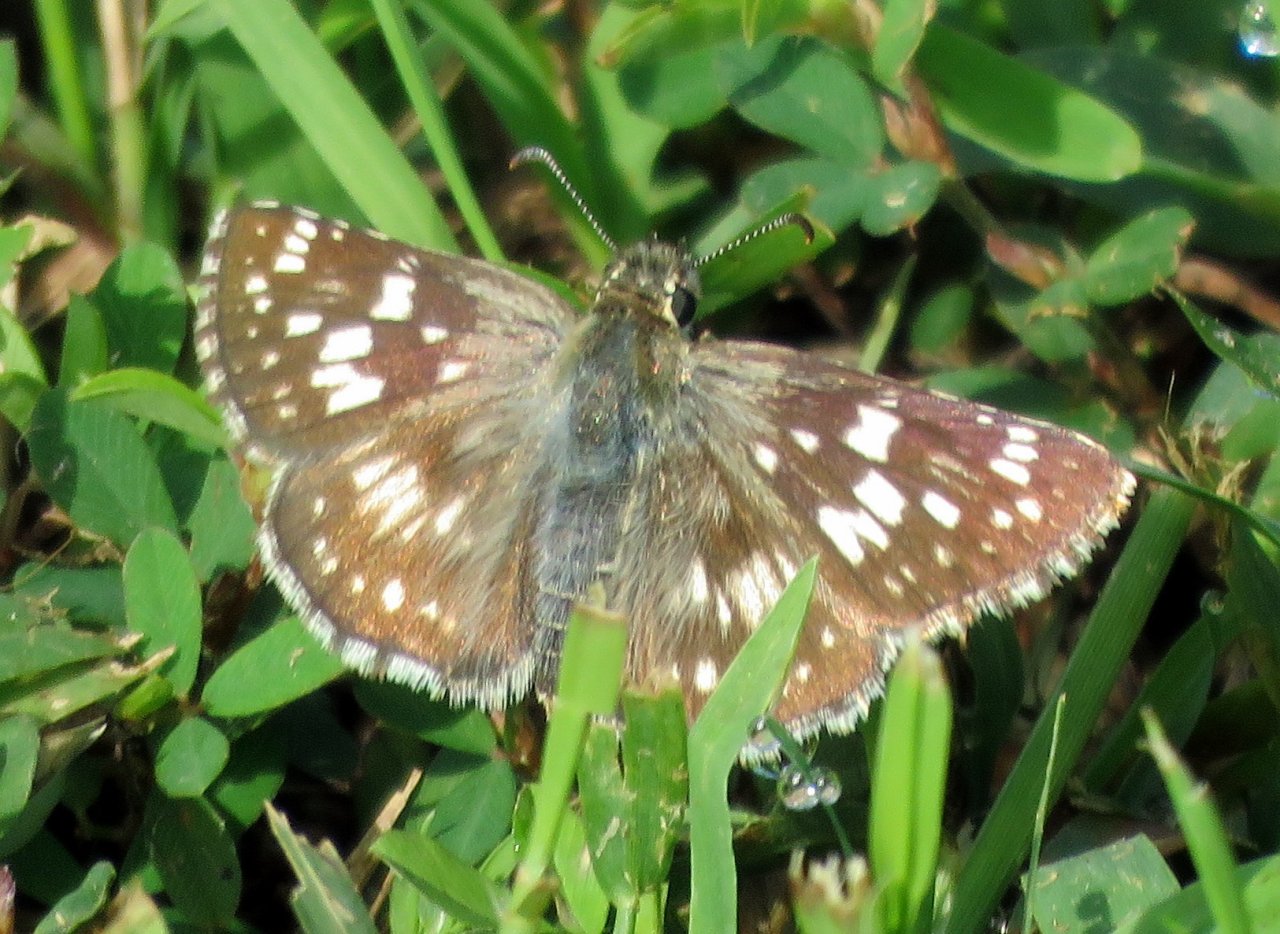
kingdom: Animalia
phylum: Arthropoda
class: Insecta
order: Lepidoptera
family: Hesperiidae
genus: Pyrgus
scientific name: Pyrgus communis
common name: Common Checkered-Skipper
